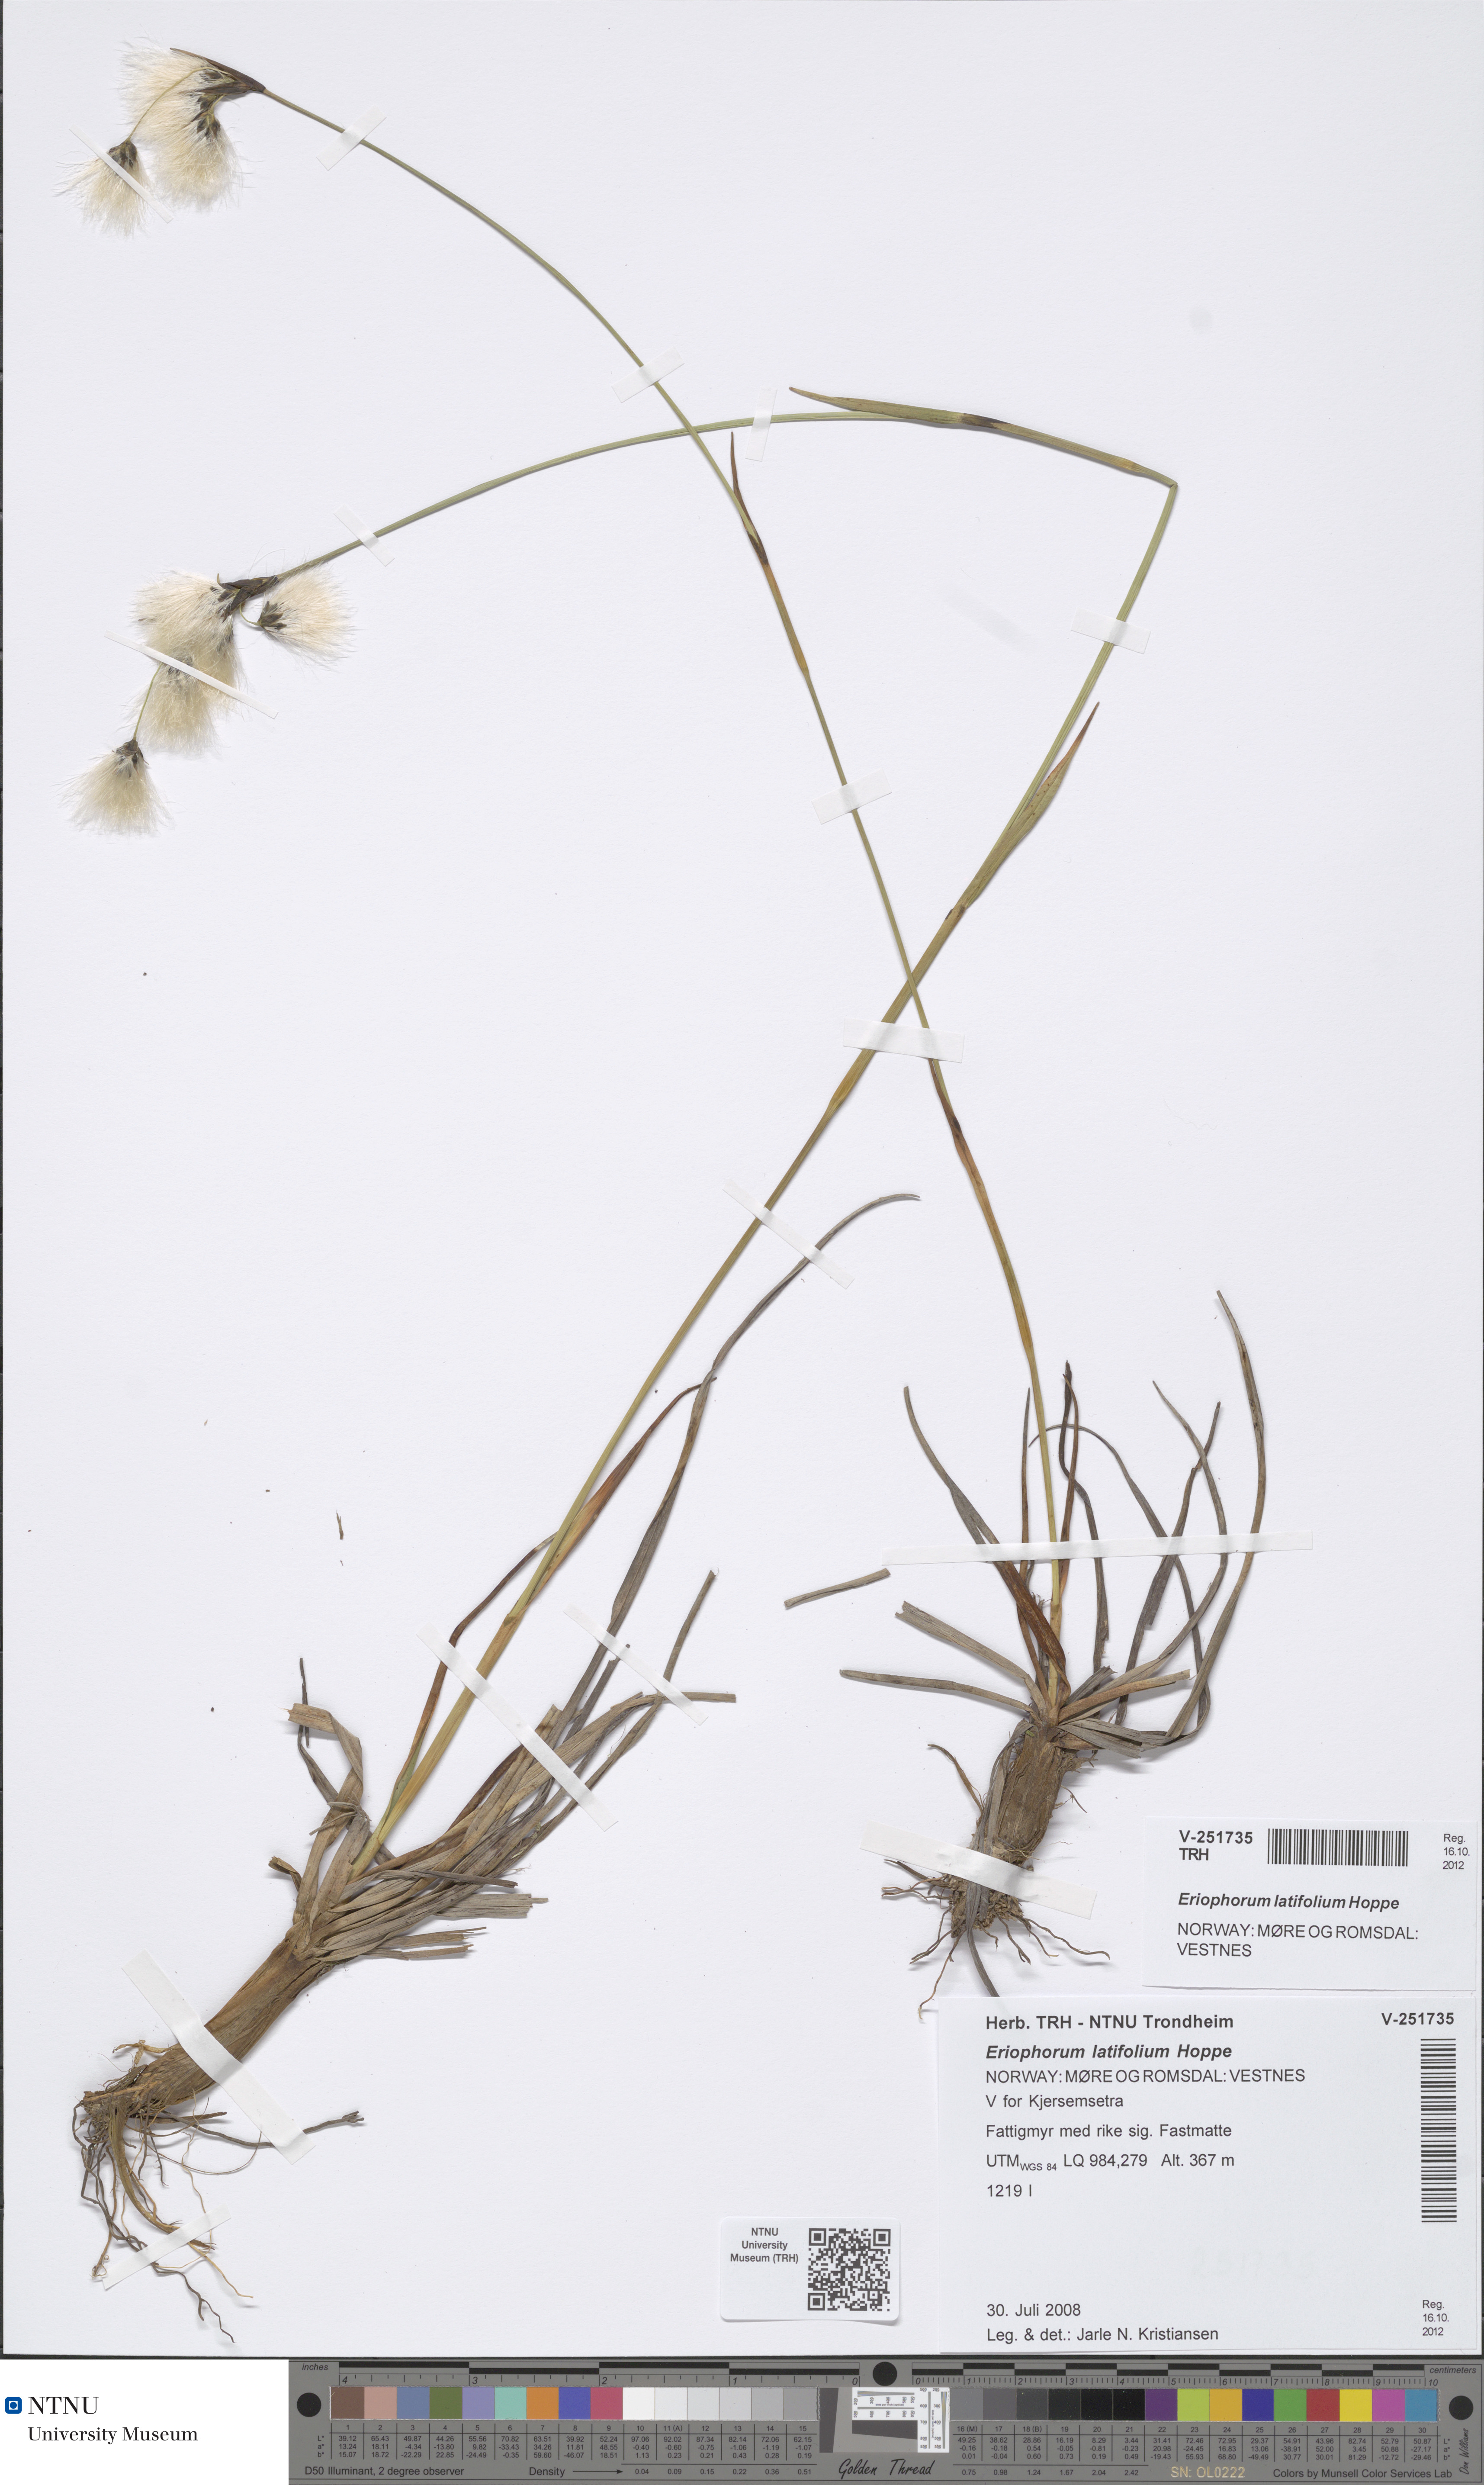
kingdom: Plantae
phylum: Tracheophyta
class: Liliopsida
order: Poales
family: Cyperaceae
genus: Eriophorum
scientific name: Eriophorum latifolium
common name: Broad-leaved cottongrass
